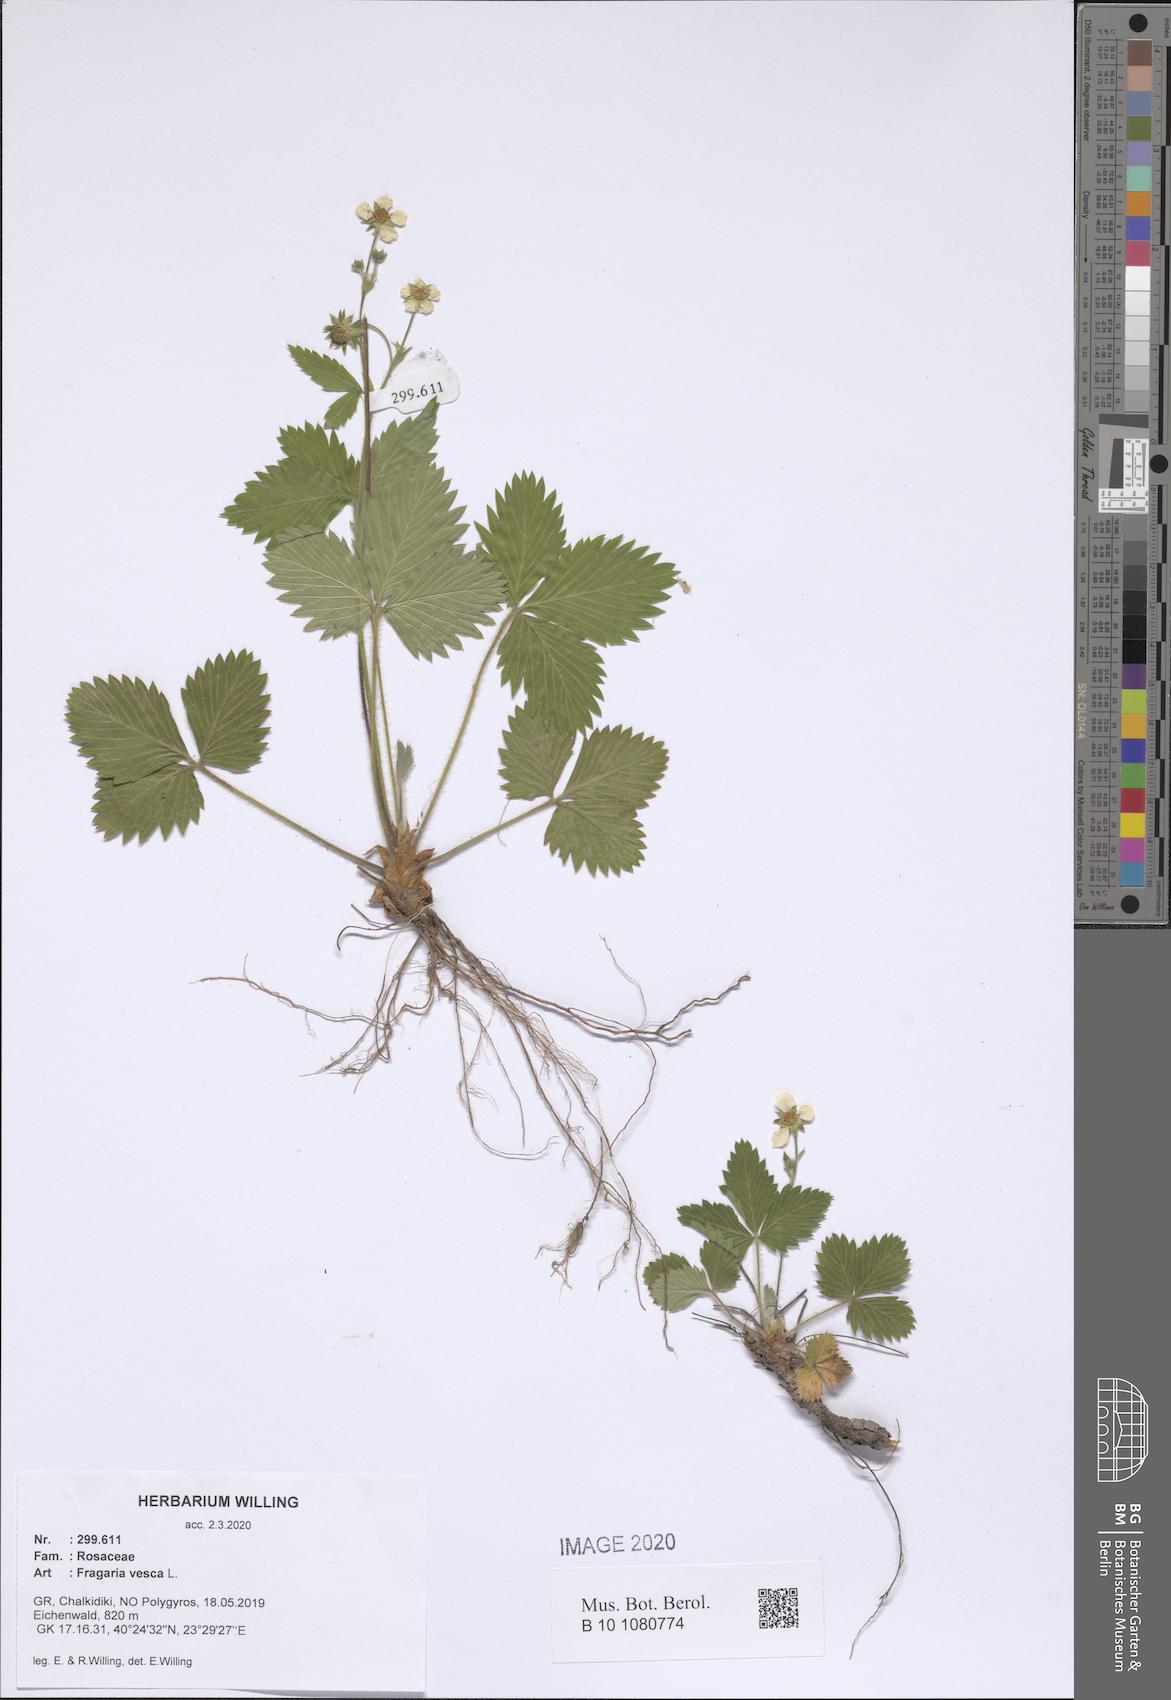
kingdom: Plantae
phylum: Tracheophyta
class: Magnoliopsida
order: Rosales
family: Rosaceae
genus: Fragaria
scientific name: Fragaria vesca
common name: Wild strawberry
